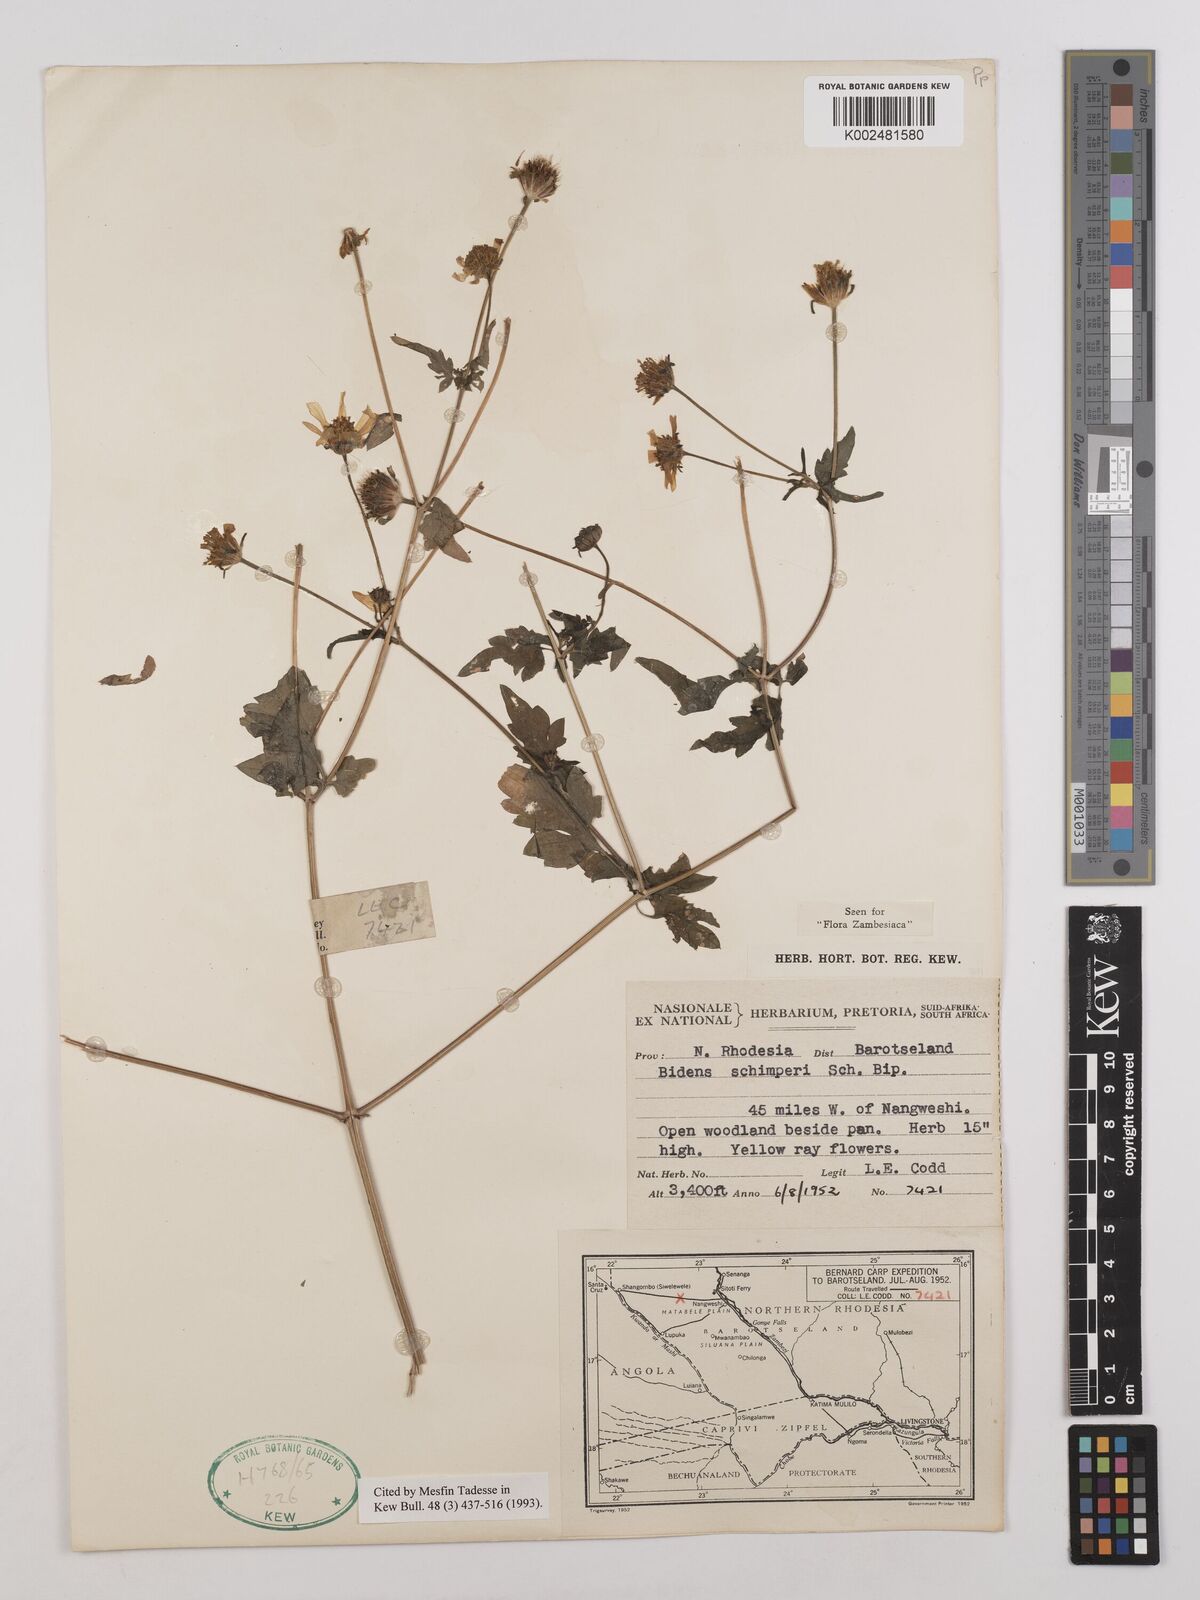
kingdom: Plantae
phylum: Tracheophyta
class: Magnoliopsida
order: Asterales
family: Asteraceae
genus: Bidens
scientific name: Bidens schimperi
